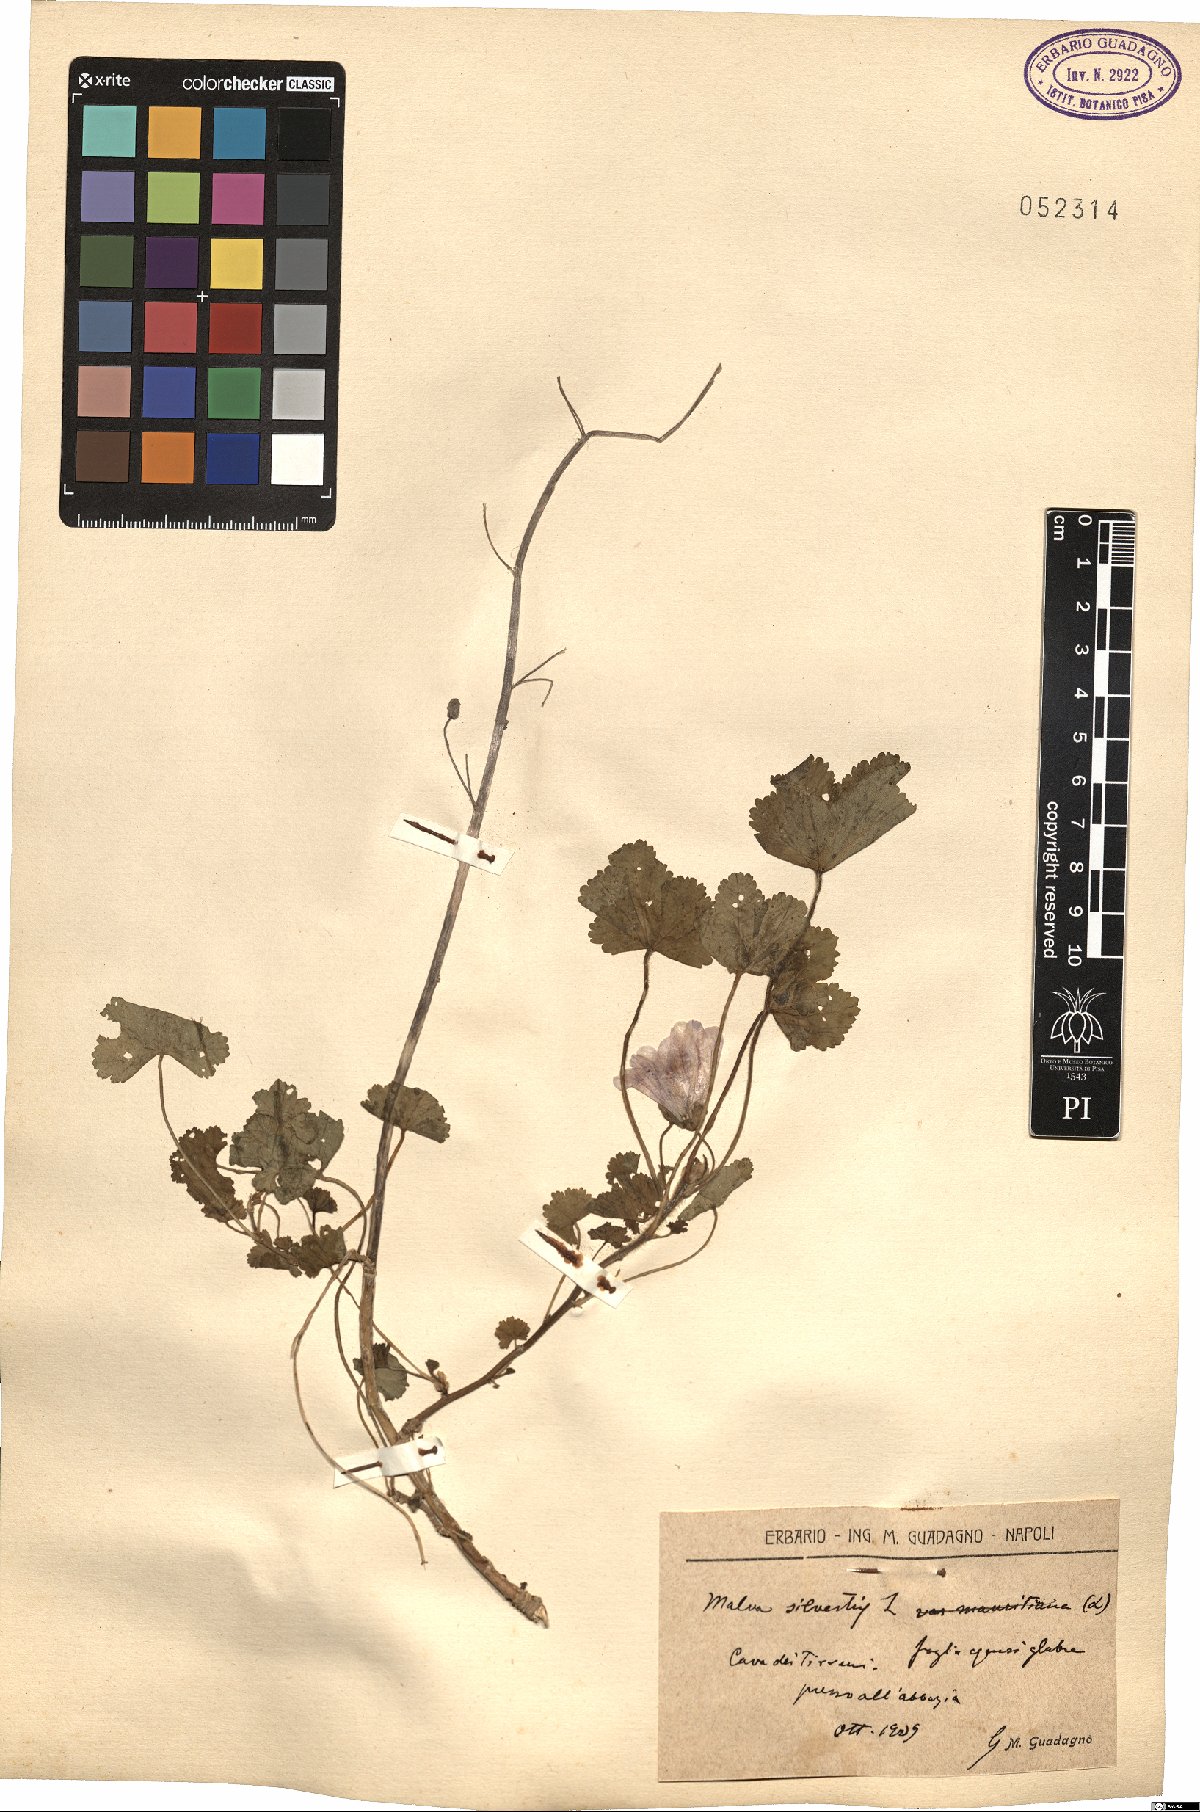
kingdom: Plantae
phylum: Tracheophyta
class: Magnoliopsida
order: Malvales
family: Malvaceae
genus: Malva
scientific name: Malva sylvestris
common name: Common mallow
